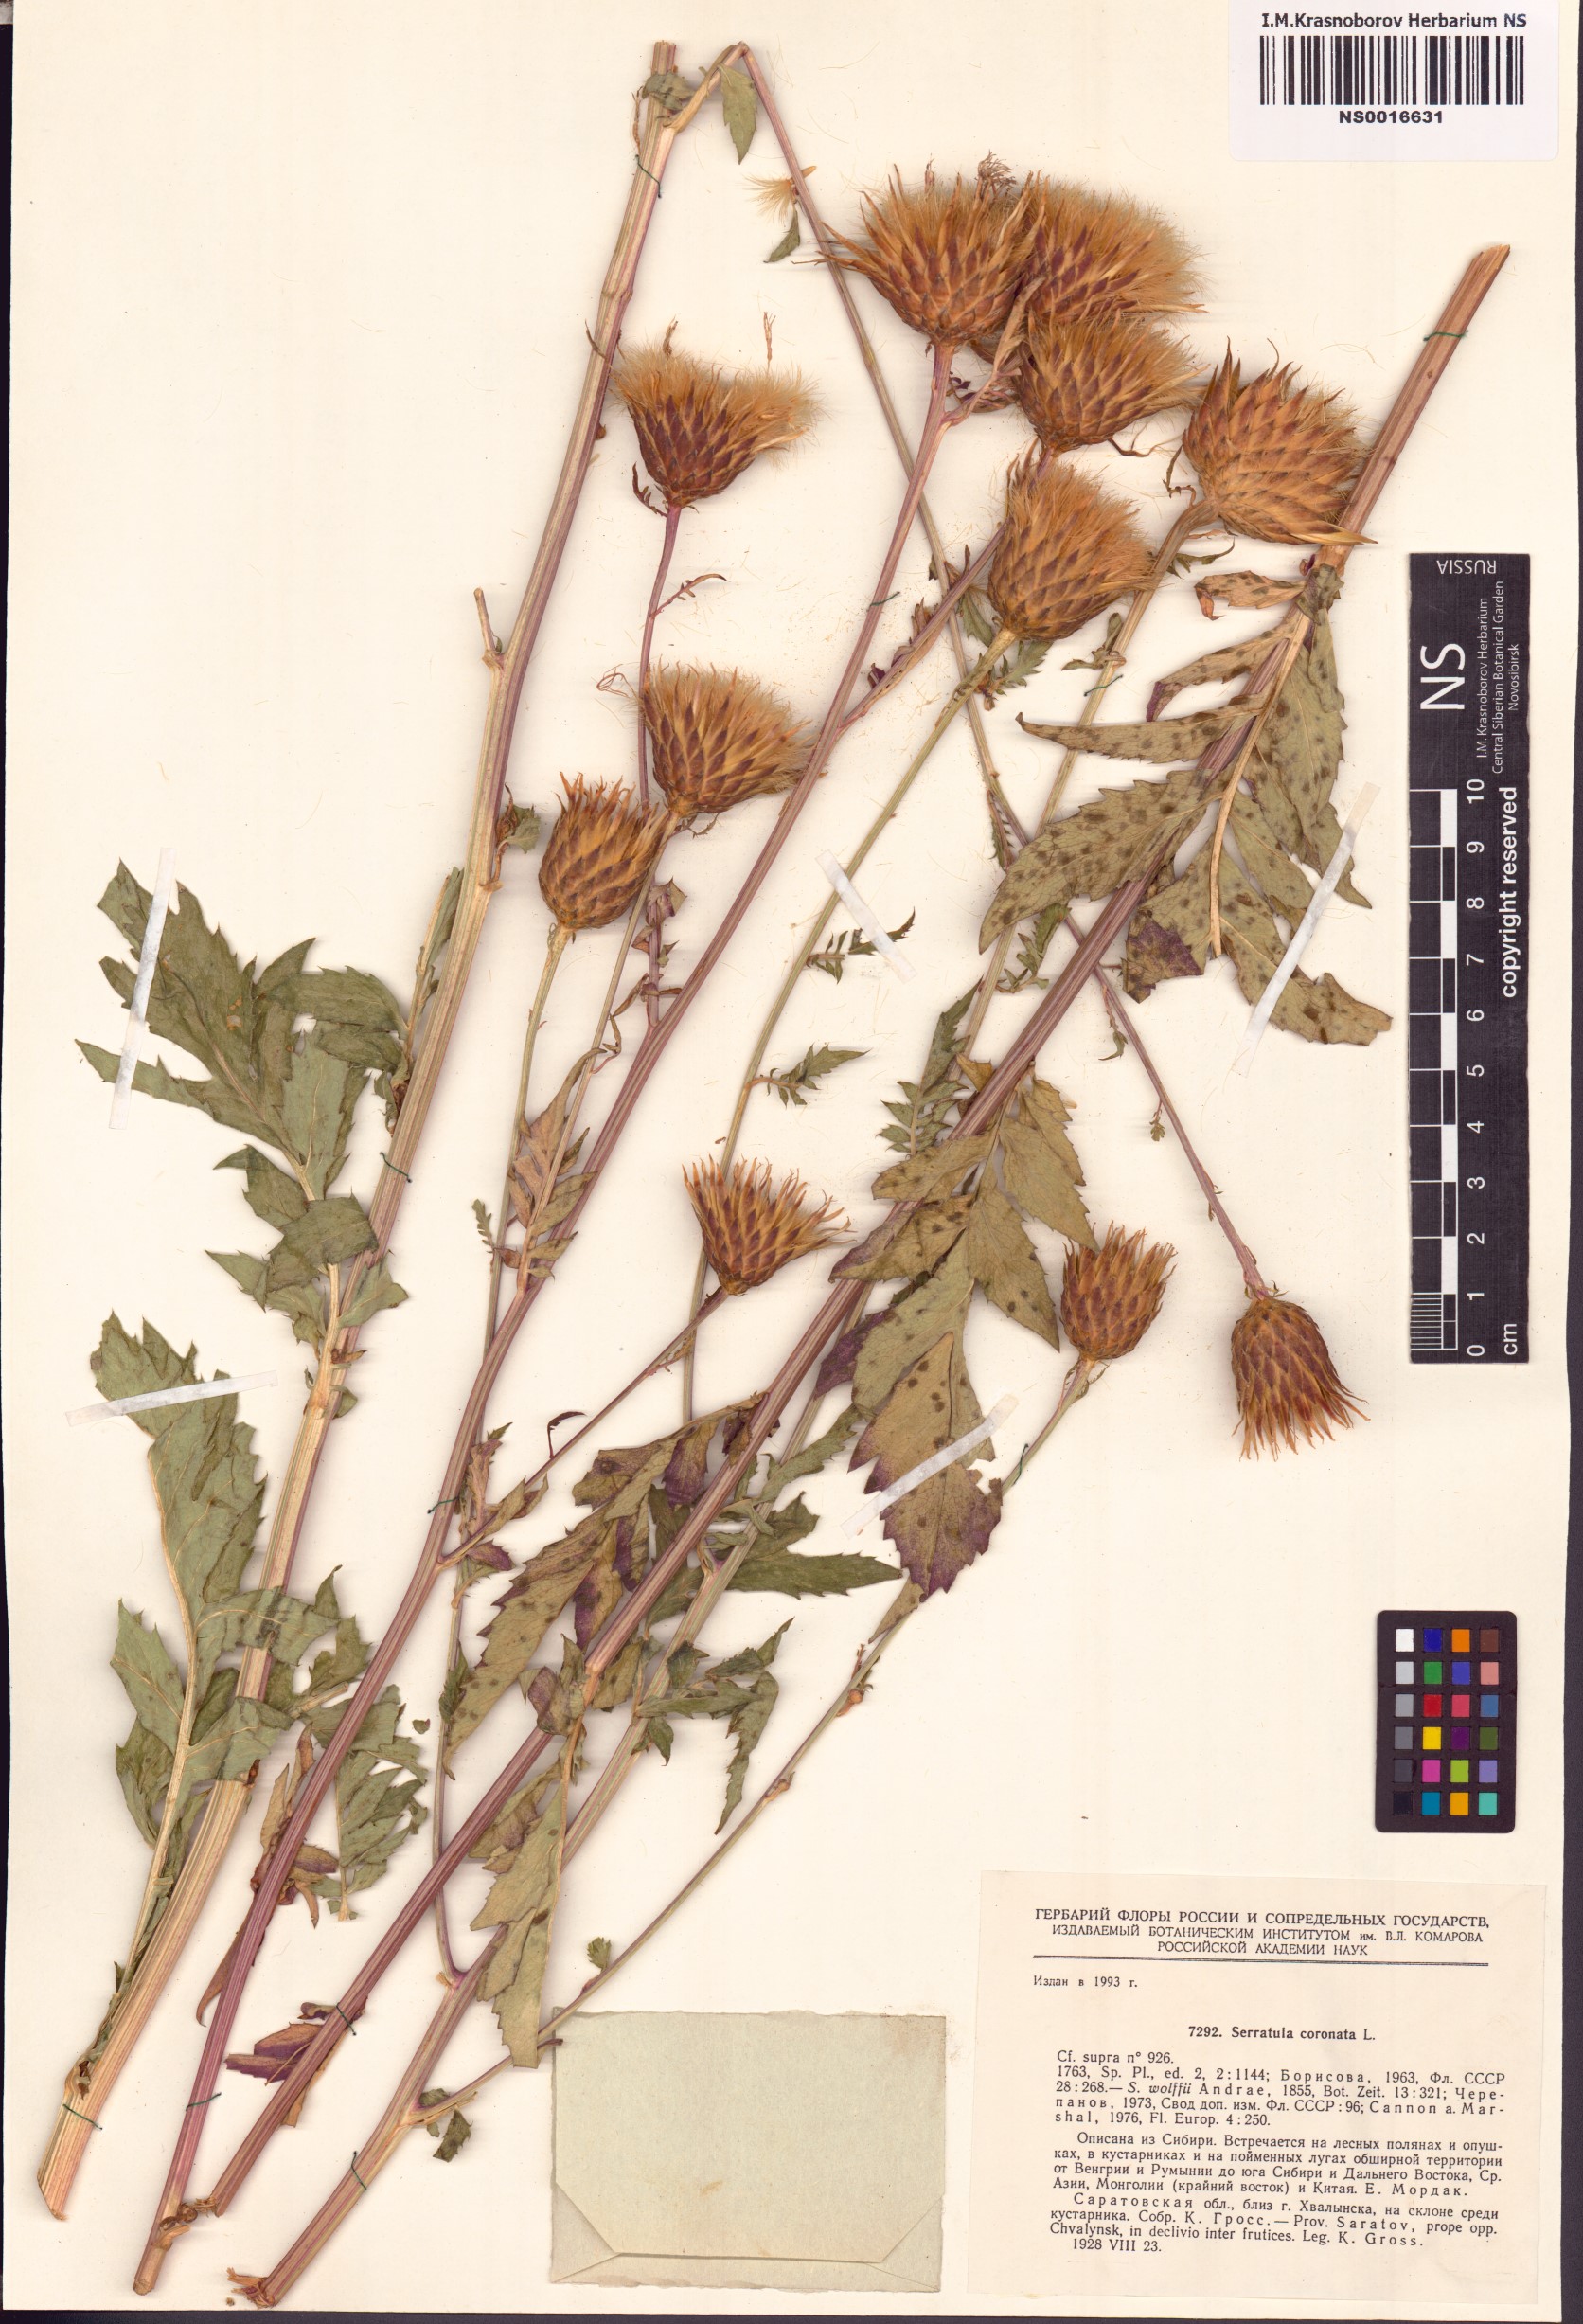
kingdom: Plantae
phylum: Tracheophyta
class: Magnoliopsida
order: Asterales
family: Asteraceae
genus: Serratula
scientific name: Serratula coronata
